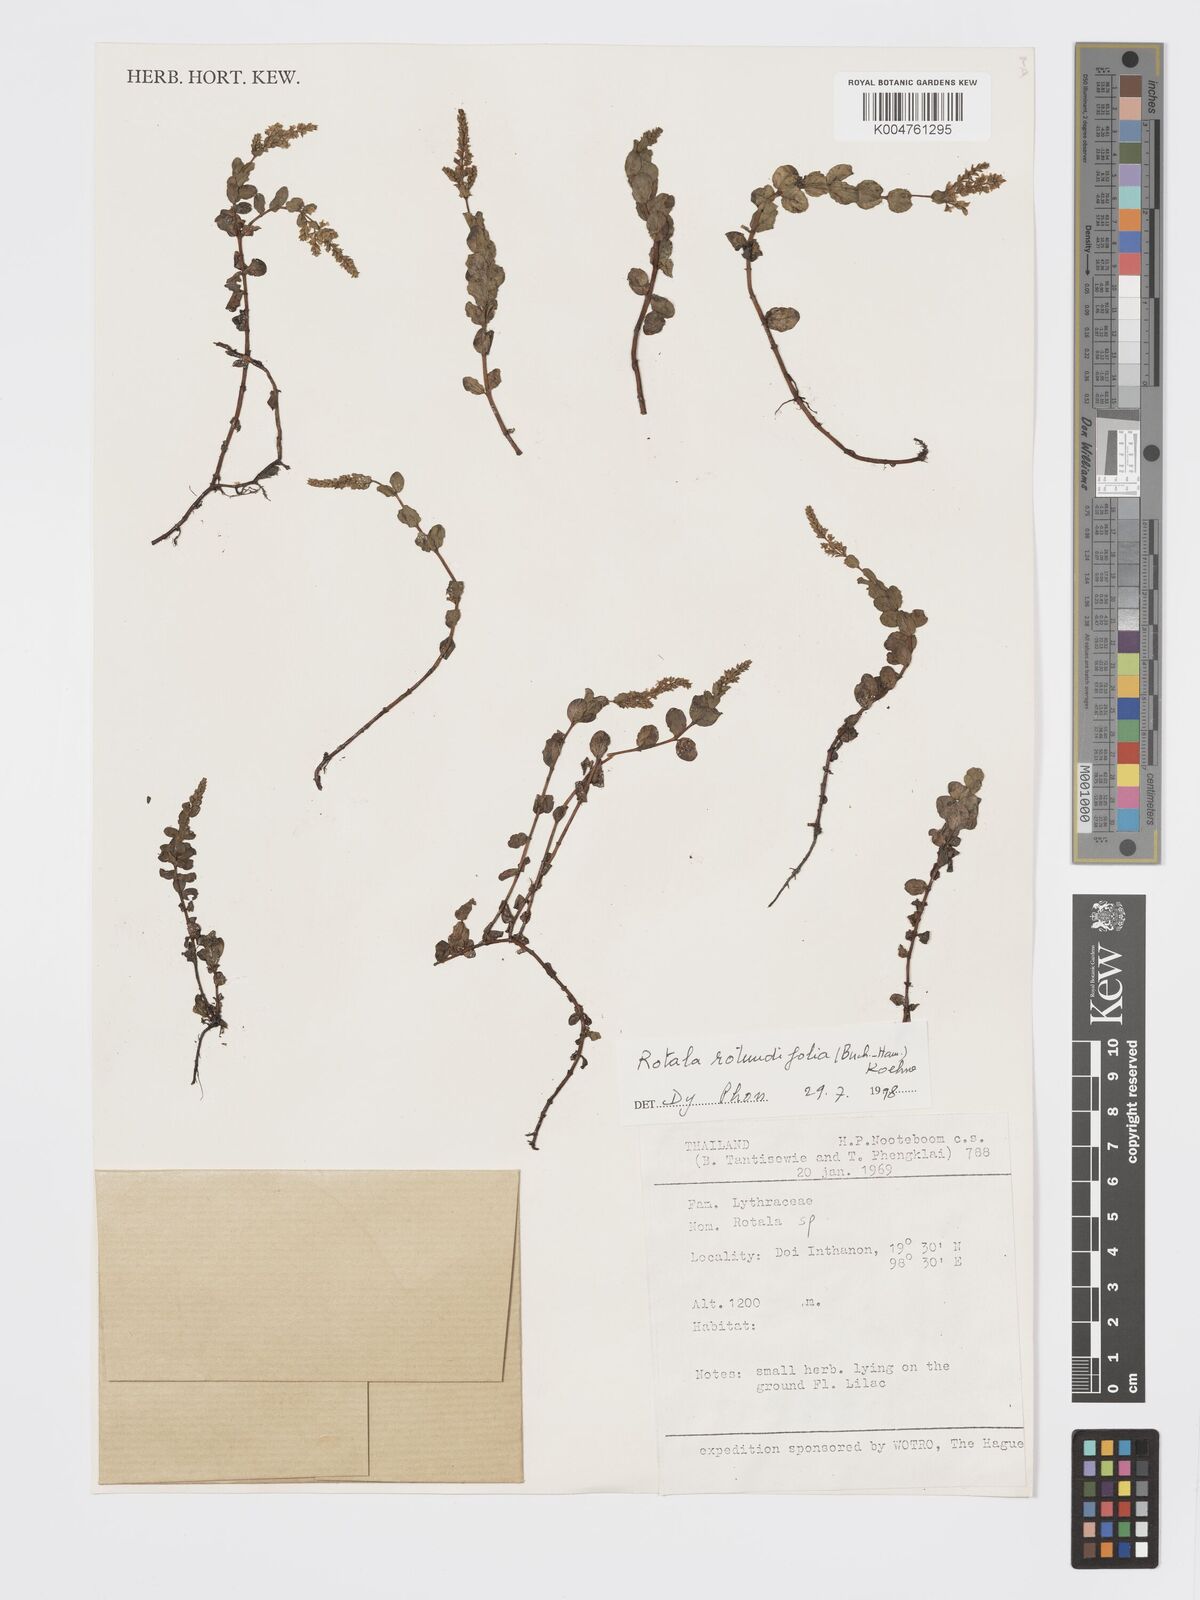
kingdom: Plantae
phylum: Tracheophyta
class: Magnoliopsida
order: Myrtales
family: Lythraceae
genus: Rotala
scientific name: Rotala rotundifolia
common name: Roundleaf toothcup
